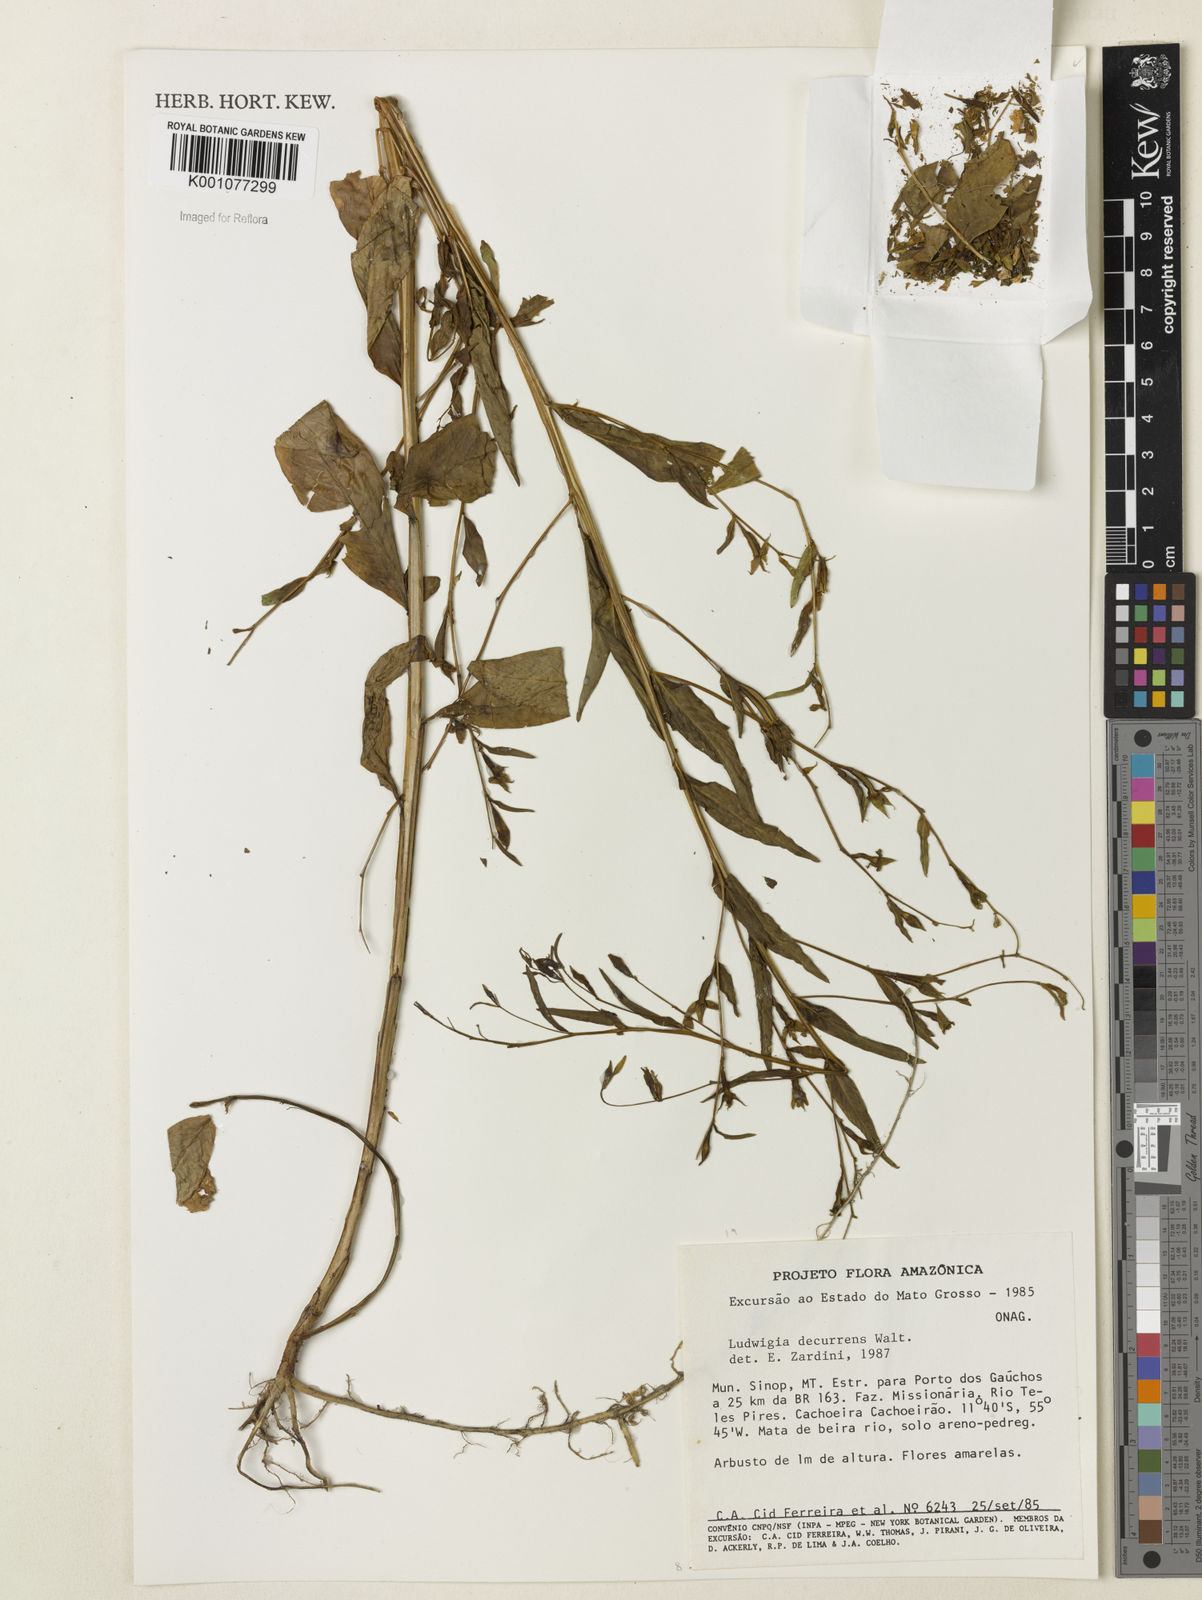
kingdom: Plantae
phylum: Tracheophyta
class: Magnoliopsida
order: Myrtales
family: Onagraceae
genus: Ludwigia
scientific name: Ludwigia decurrens
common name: Winged water-primrose
